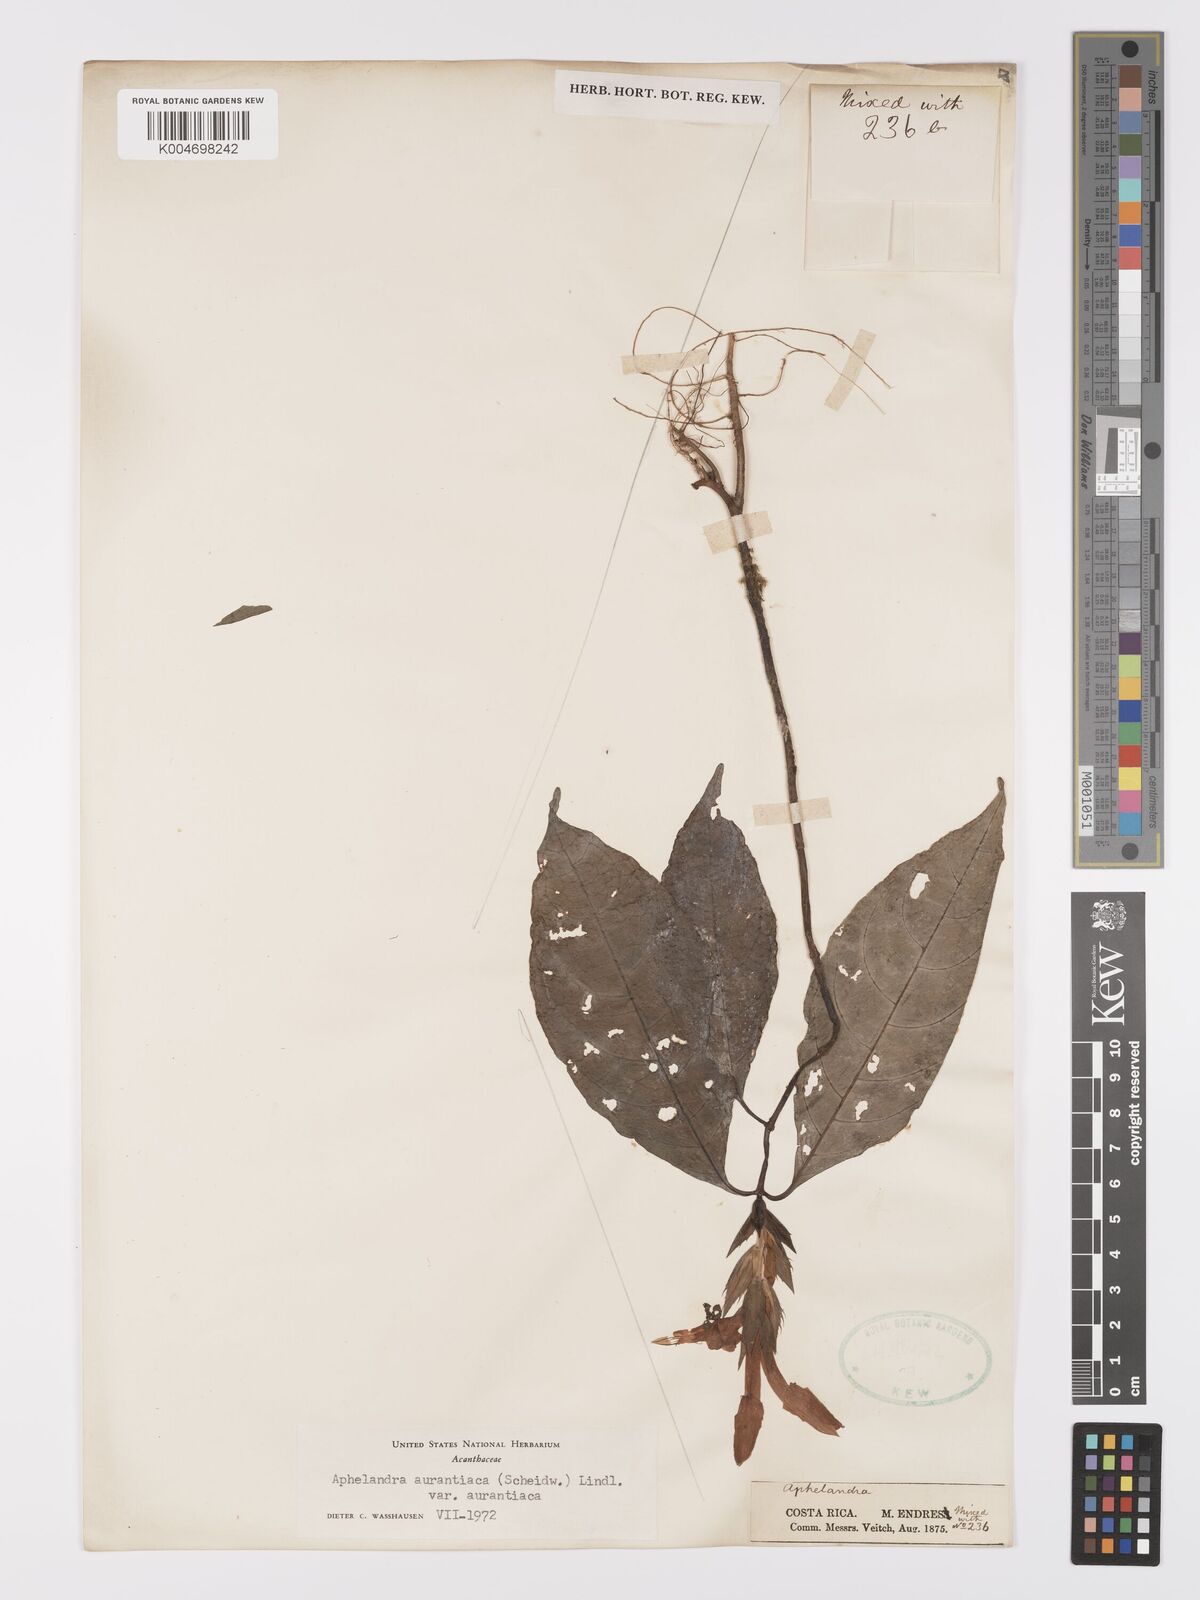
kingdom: Plantae
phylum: Tracheophyta
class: Magnoliopsida
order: Lamiales
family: Acanthaceae
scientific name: Acanthaceae
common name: Acanthaceae
